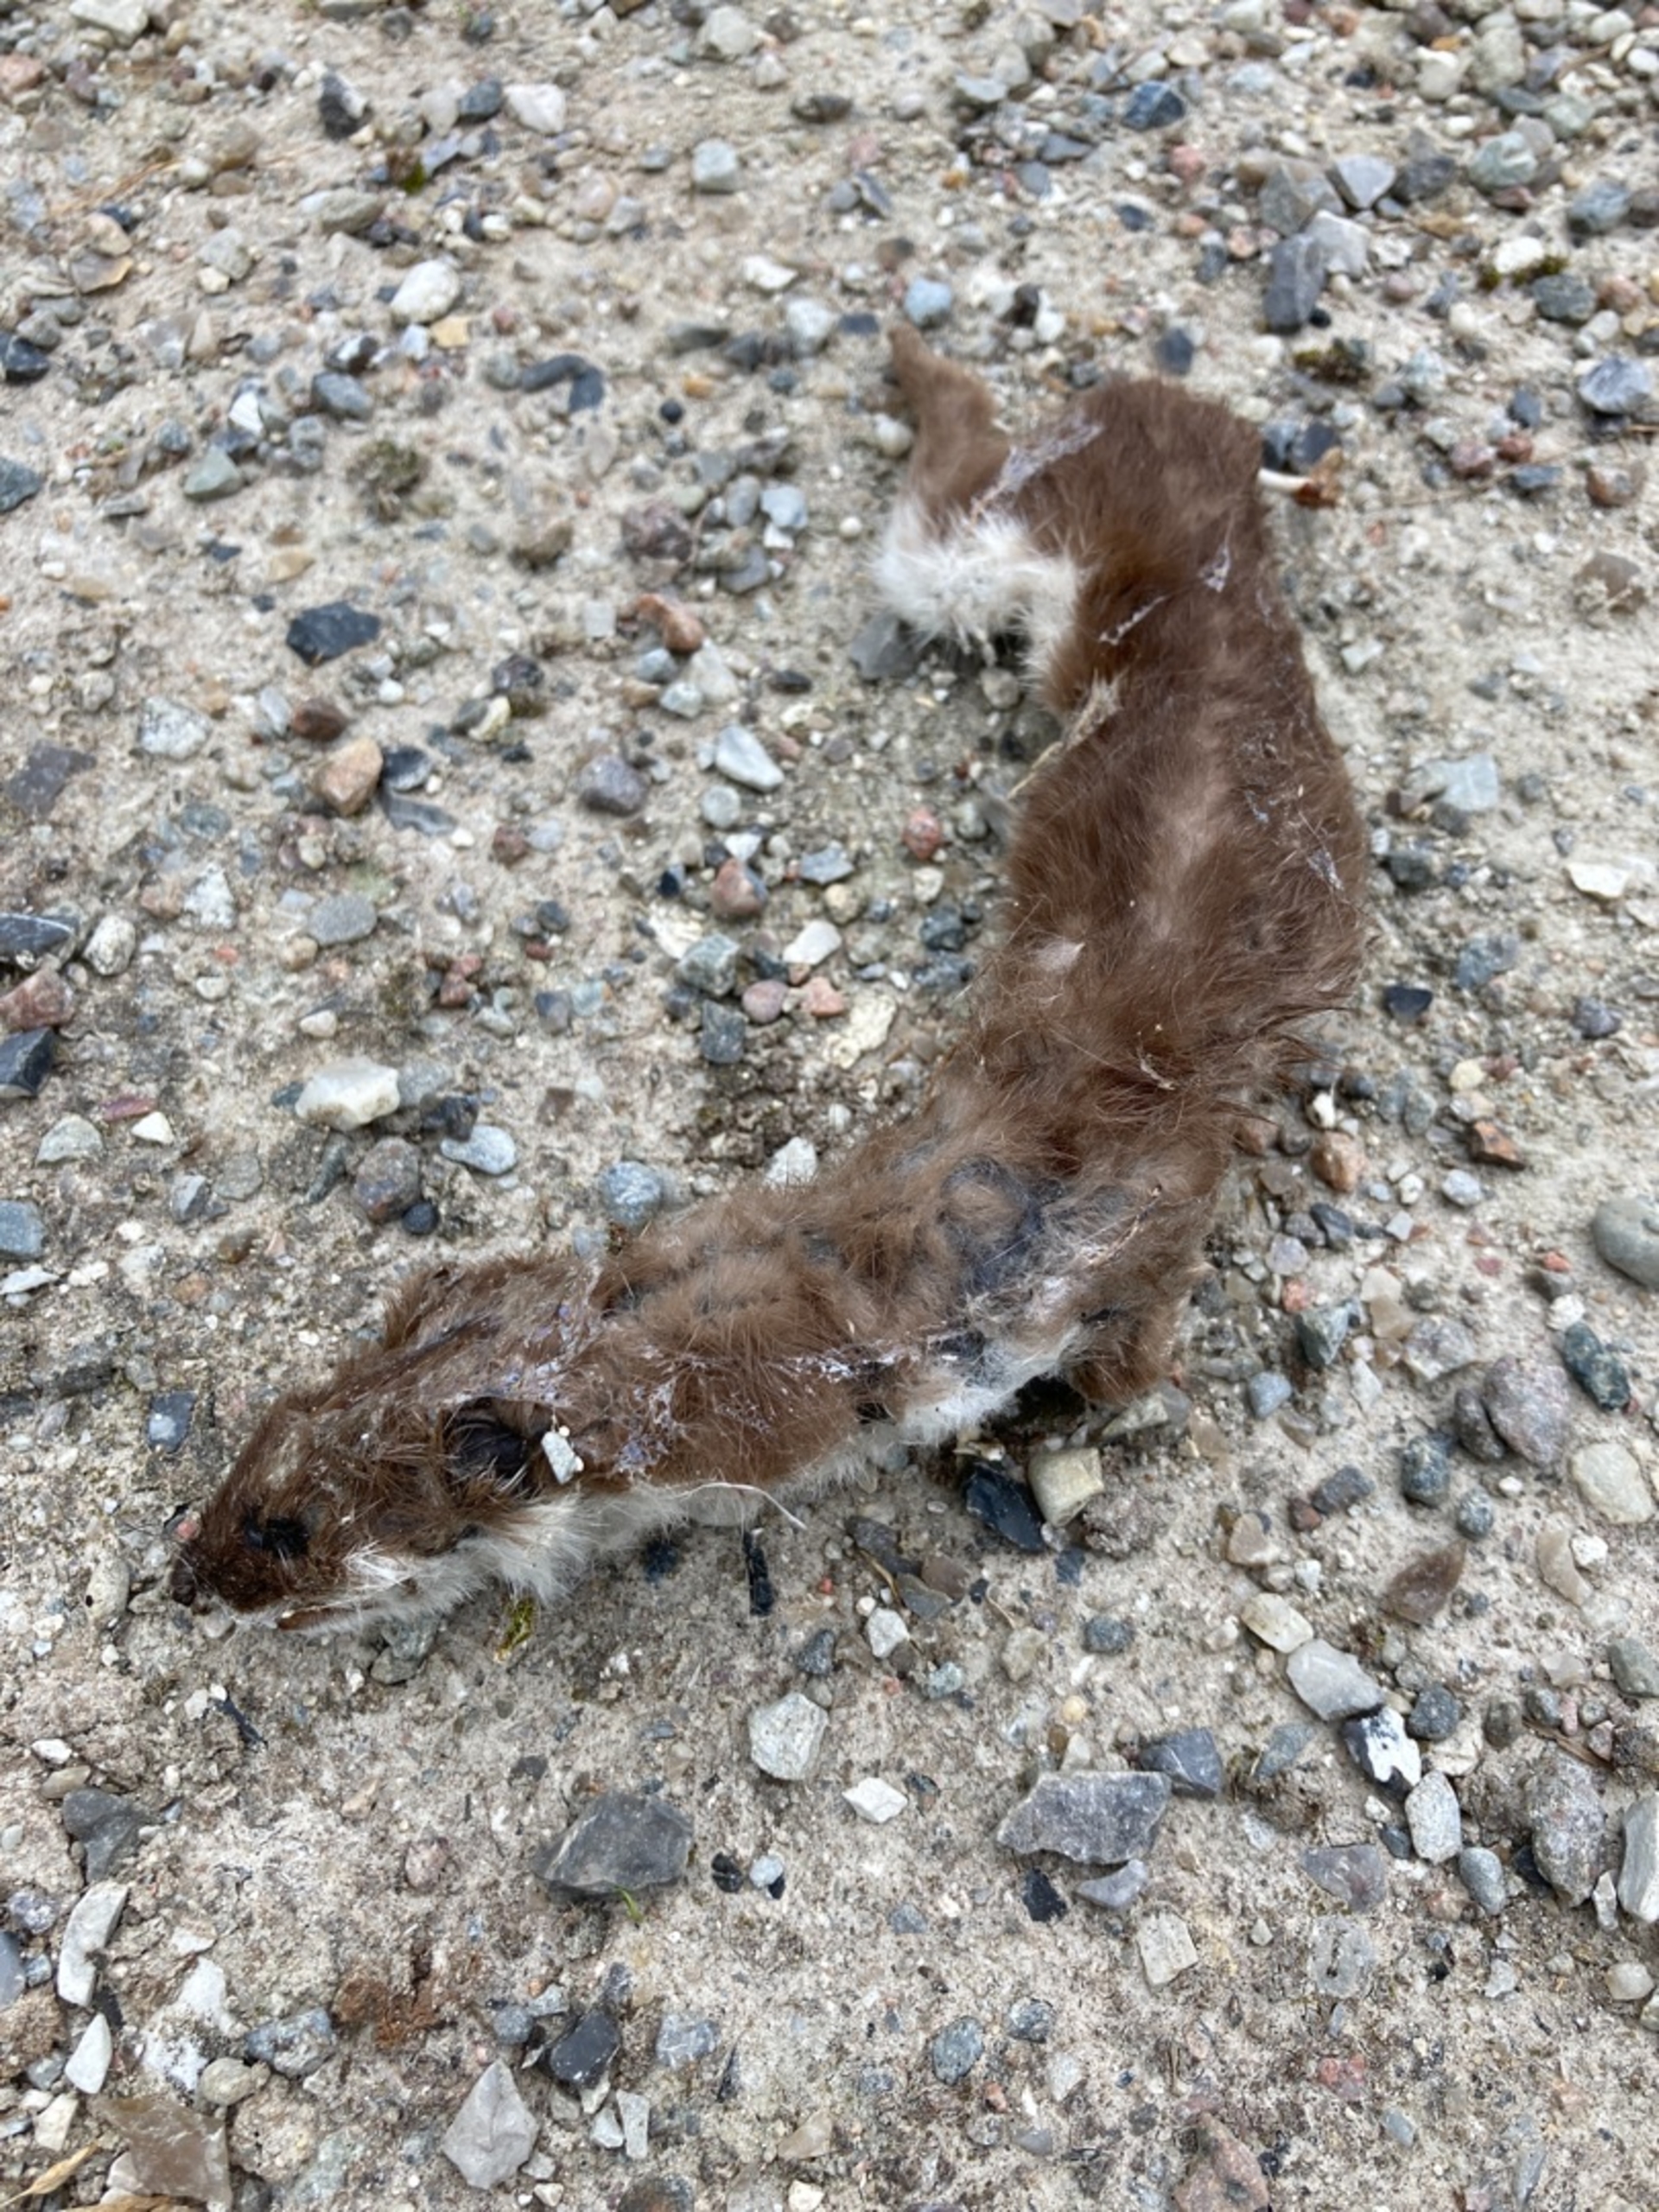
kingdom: Animalia
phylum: Chordata
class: Mammalia
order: Carnivora
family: Mustelidae
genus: Mustela
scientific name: Mustela nivalis
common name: Brud
